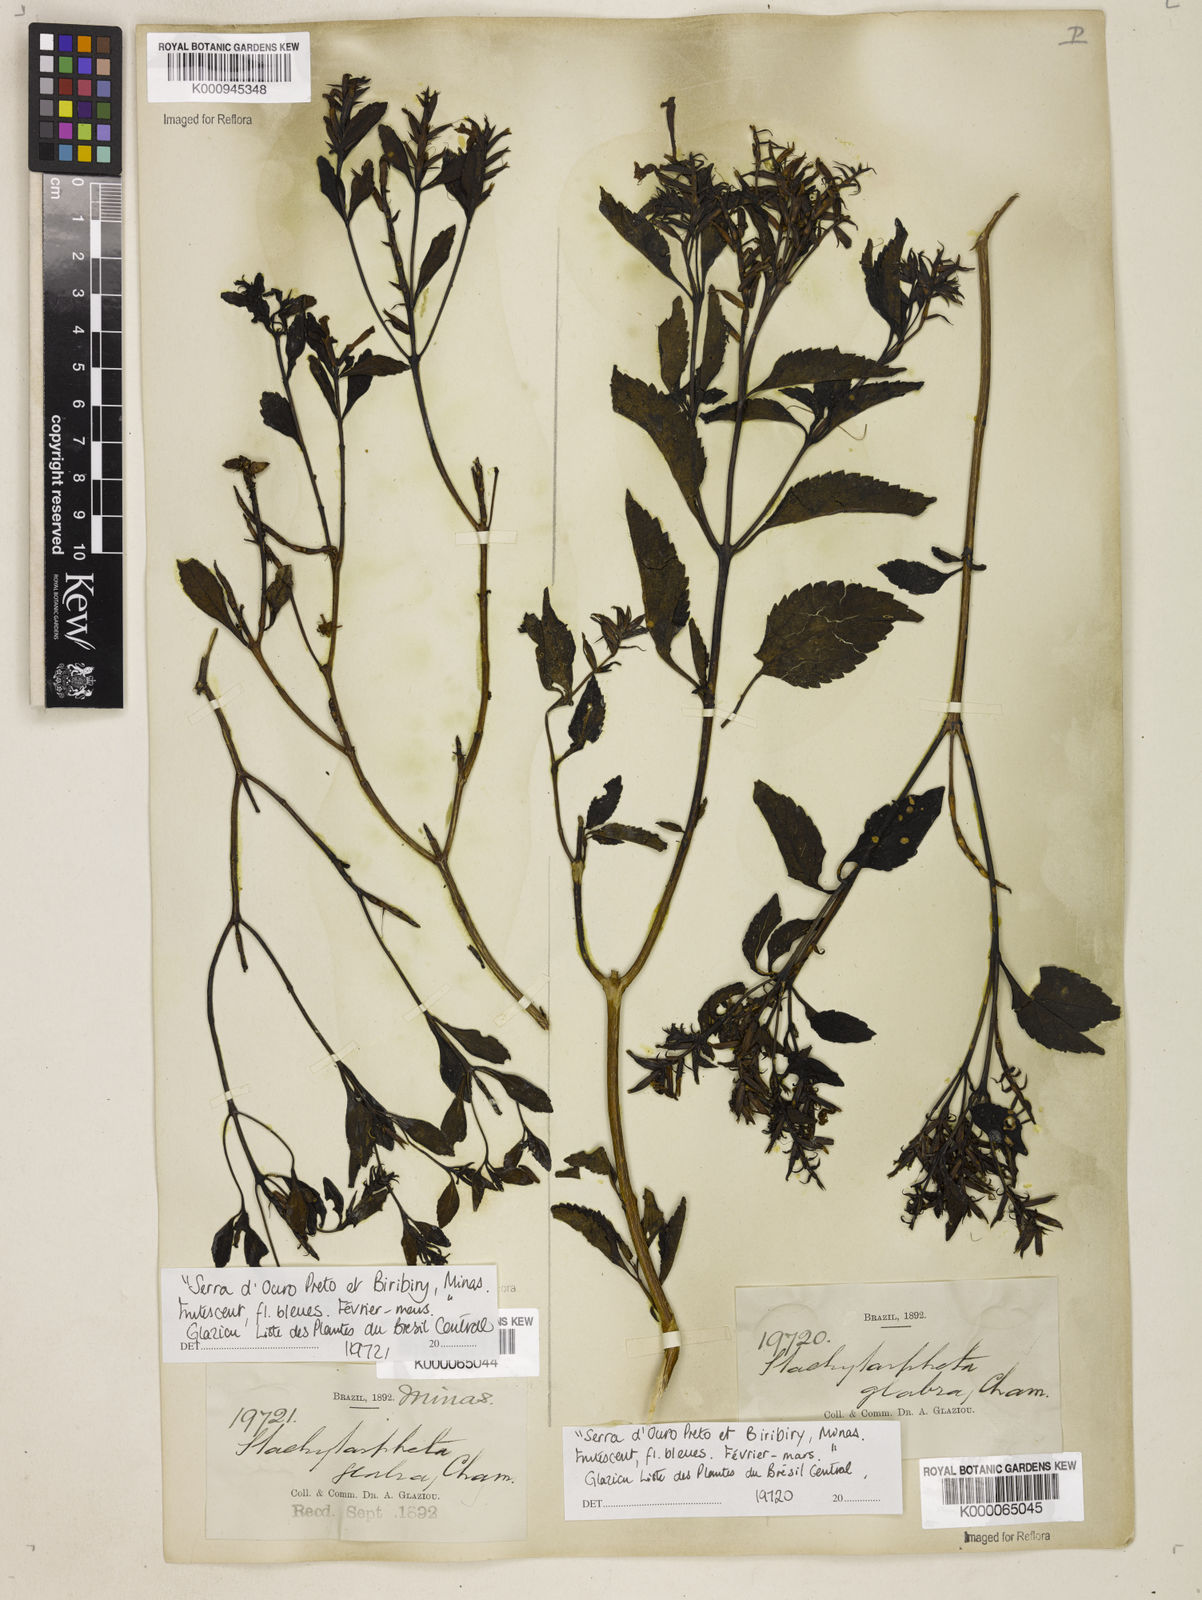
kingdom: Plantae
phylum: Tracheophyta
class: Magnoliopsida
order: Lamiales
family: Verbenaceae
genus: Stachytarpheta
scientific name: Stachytarpheta glabra
